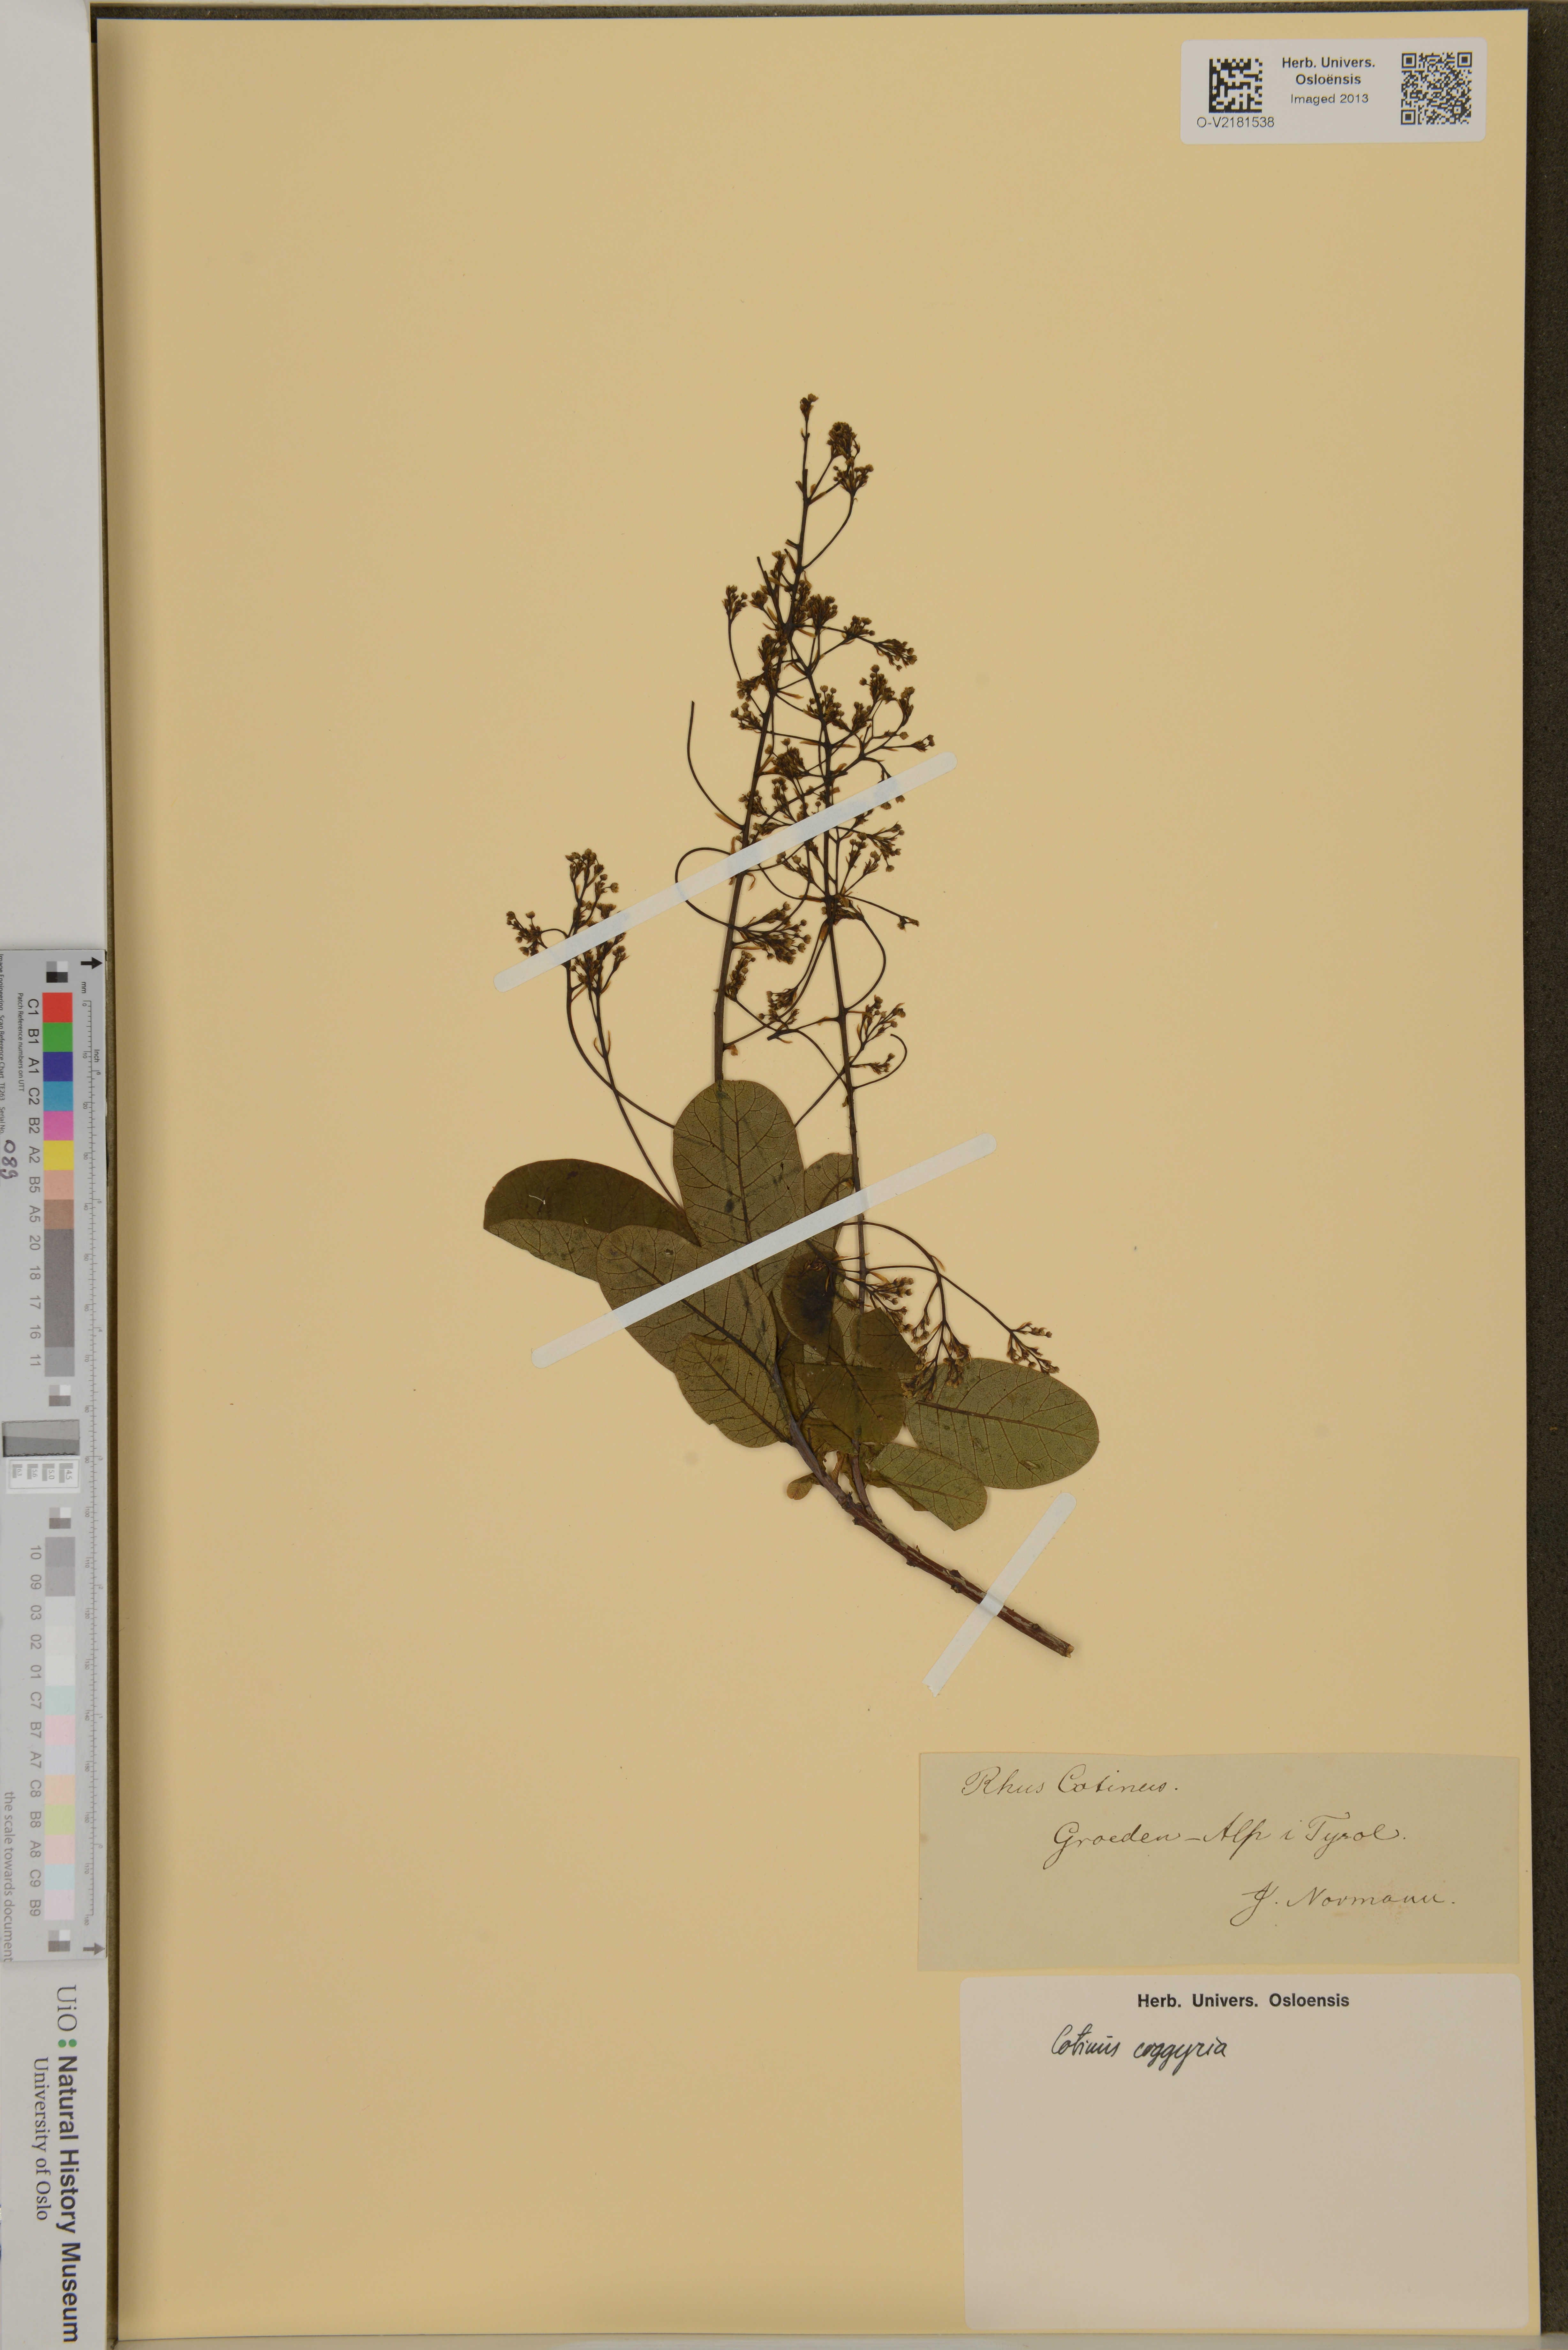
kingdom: Plantae
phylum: Tracheophyta
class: Magnoliopsida
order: Sapindales
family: Anacardiaceae
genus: Cotinus
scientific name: Cotinus coggygria
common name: Smoke-tree
